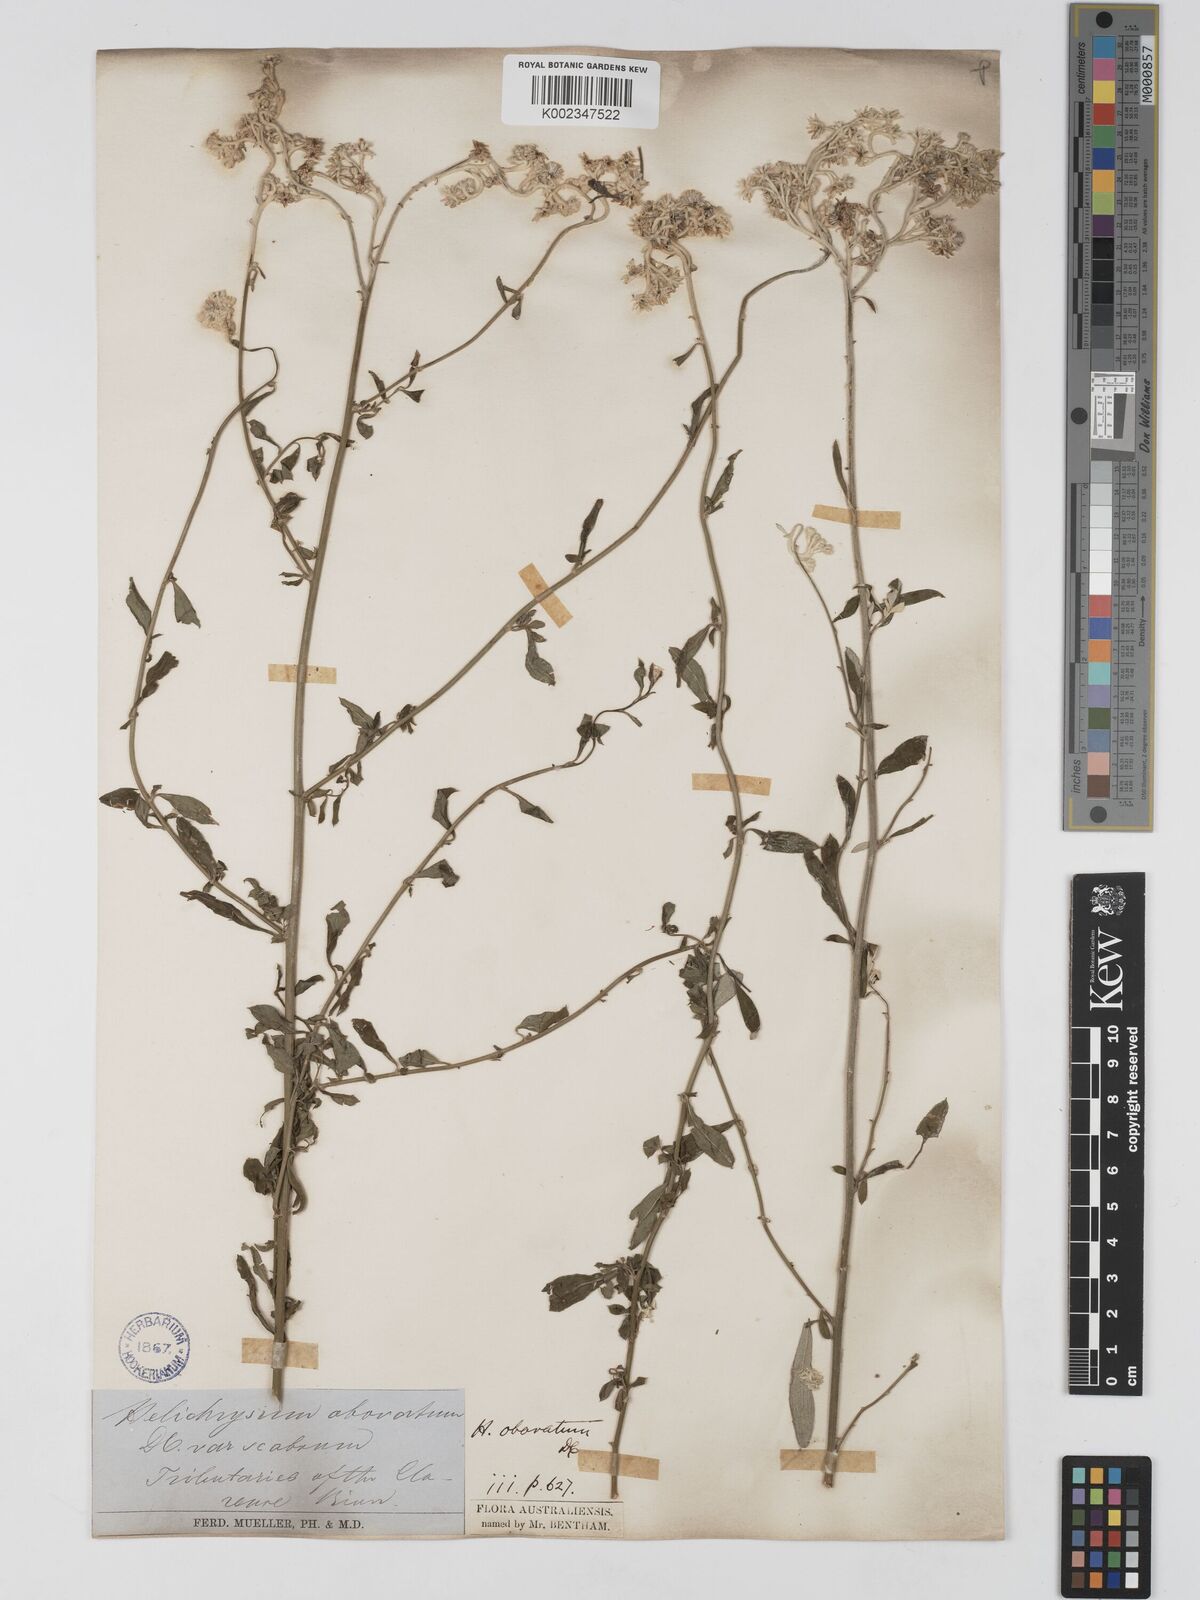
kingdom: Plantae
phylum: Tracheophyta
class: Magnoliopsida
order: Asterales
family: Asteraceae
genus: Ozothamnus
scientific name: Ozothamnus obovatus
